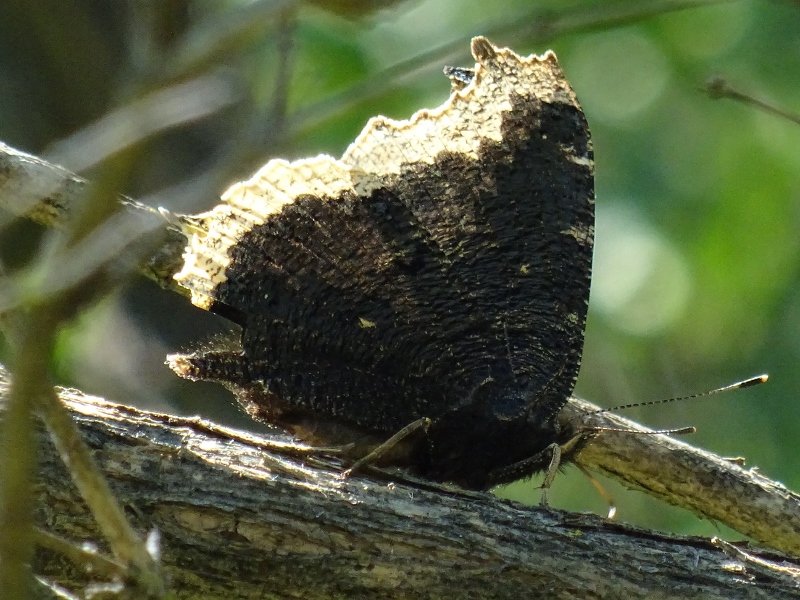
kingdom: Animalia
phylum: Arthropoda
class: Insecta
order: Lepidoptera
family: Nymphalidae
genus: Nymphalis
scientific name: Nymphalis antiopa
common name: Mourning Cloak
